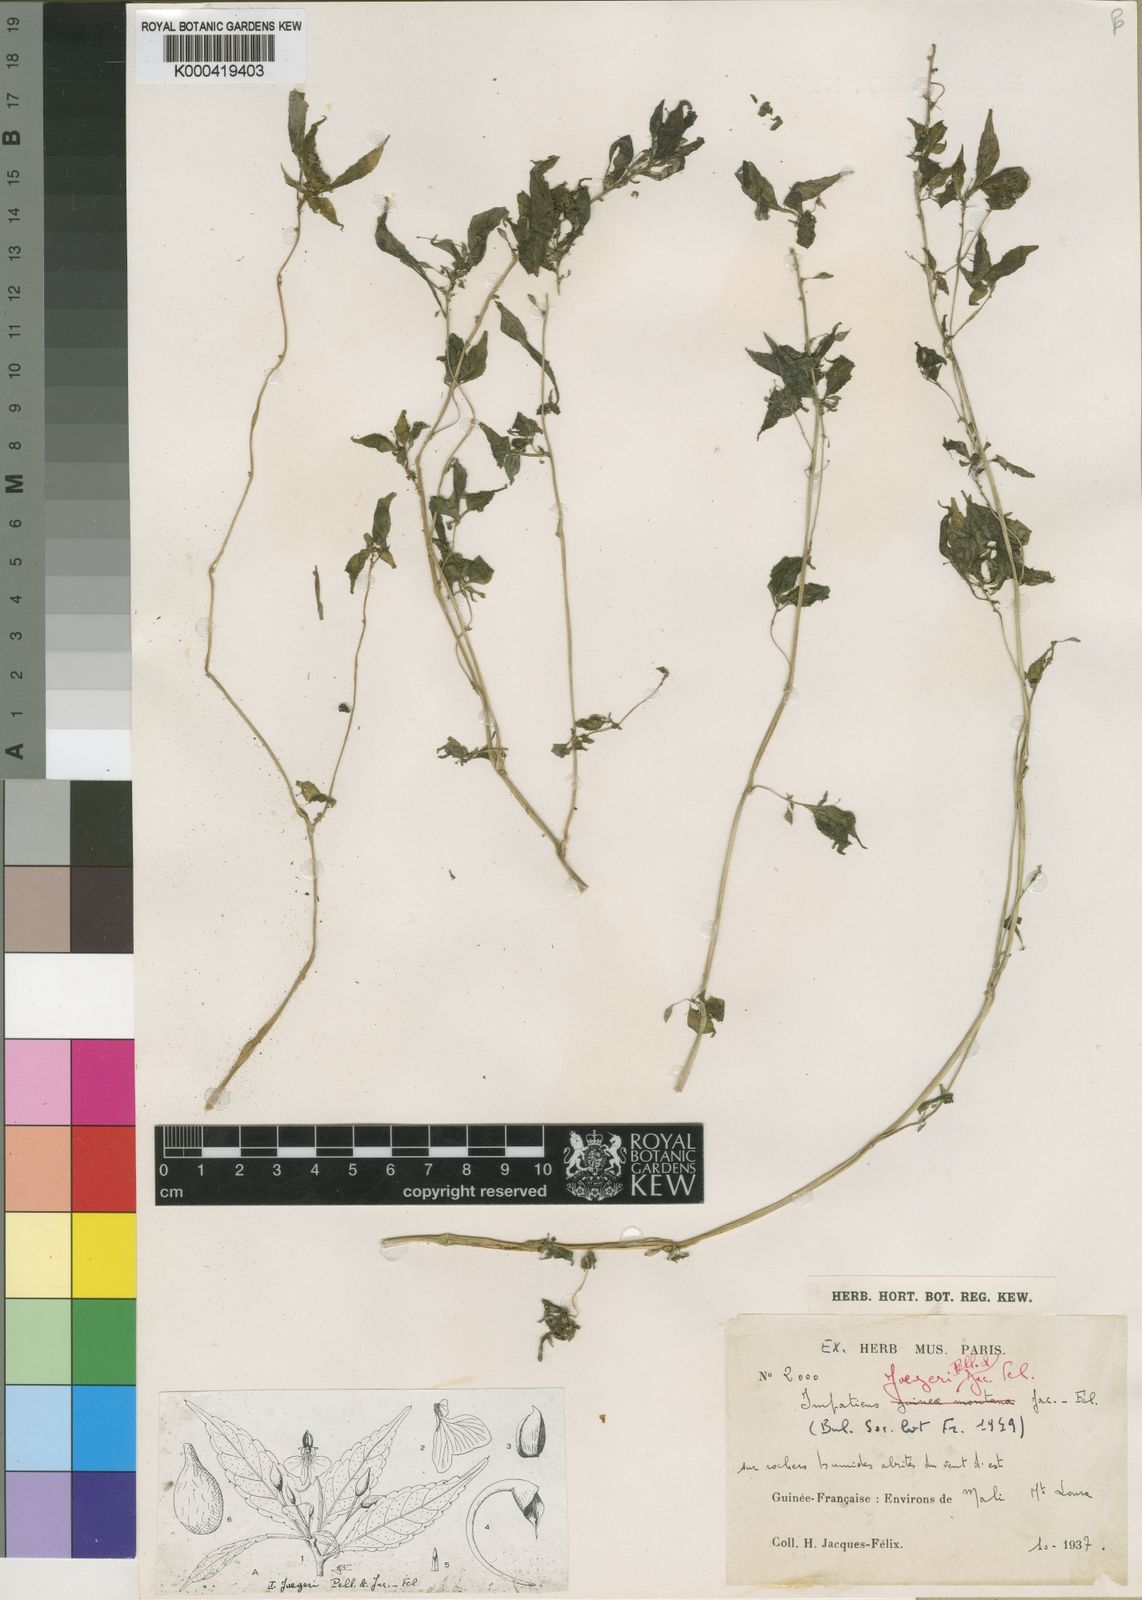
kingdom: Plantae
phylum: Tracheophyta
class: Magnoliopsida
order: Ericales
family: Balsaminaceae
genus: Impatiens
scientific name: Impatiens hochstetteri
